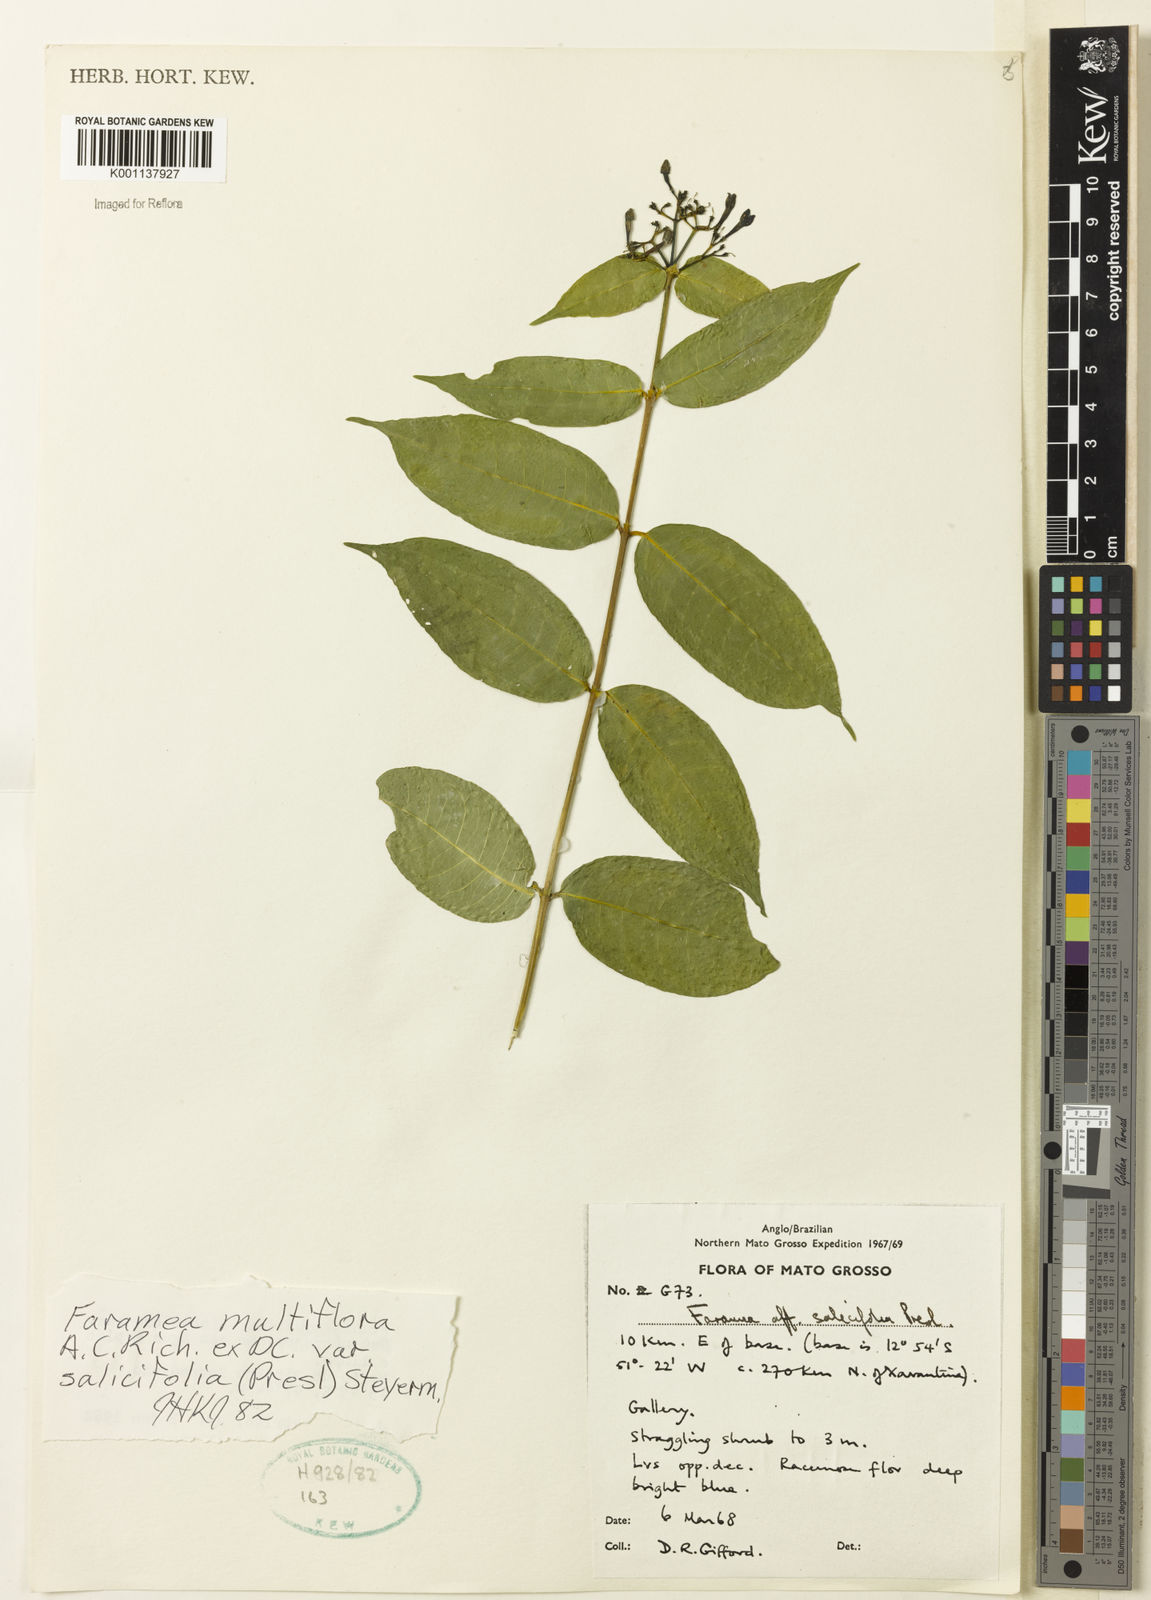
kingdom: Plantae
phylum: Tracheophyta
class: Magnoliopsida
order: Gentianales
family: Rubiaceae
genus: Faramea
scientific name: Faramea multiflora
